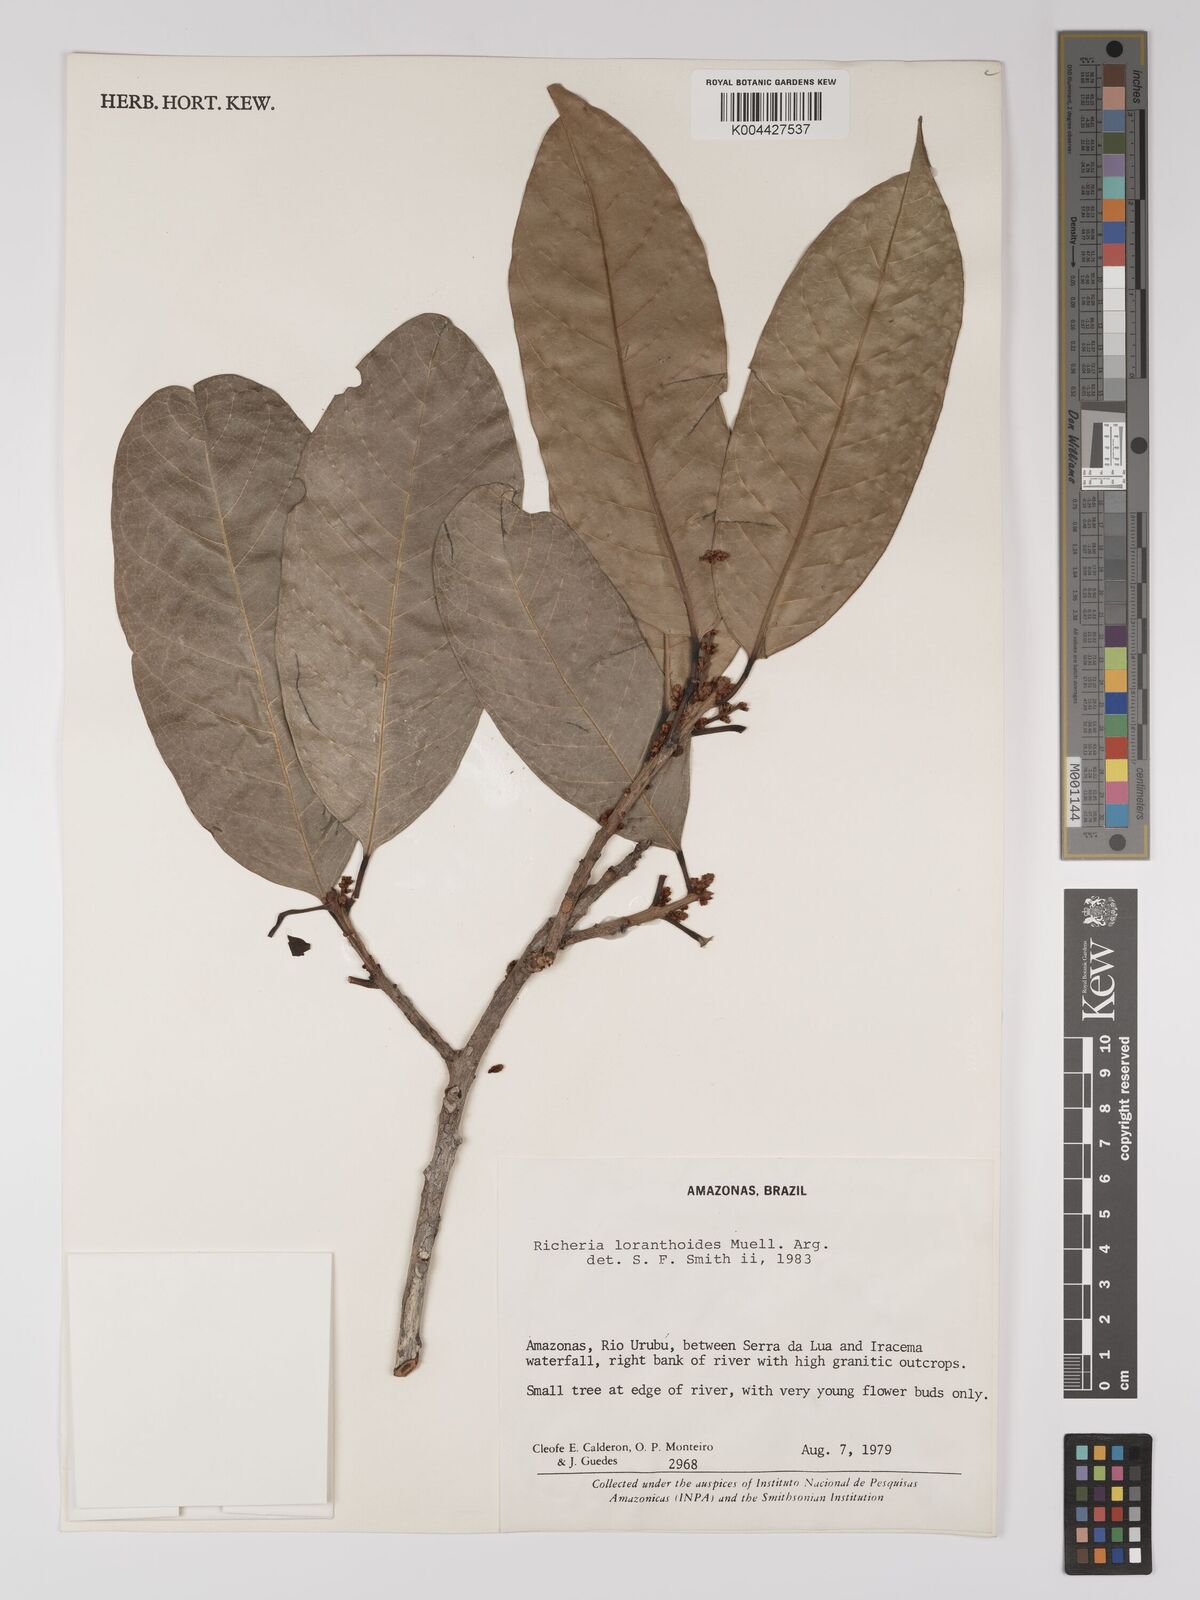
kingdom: Plantae
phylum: Tracheophyta
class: Magnoliopsida
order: Malpighiales
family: Picrodendraceae
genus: Podocalyx
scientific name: Podocalyx loranthoides
